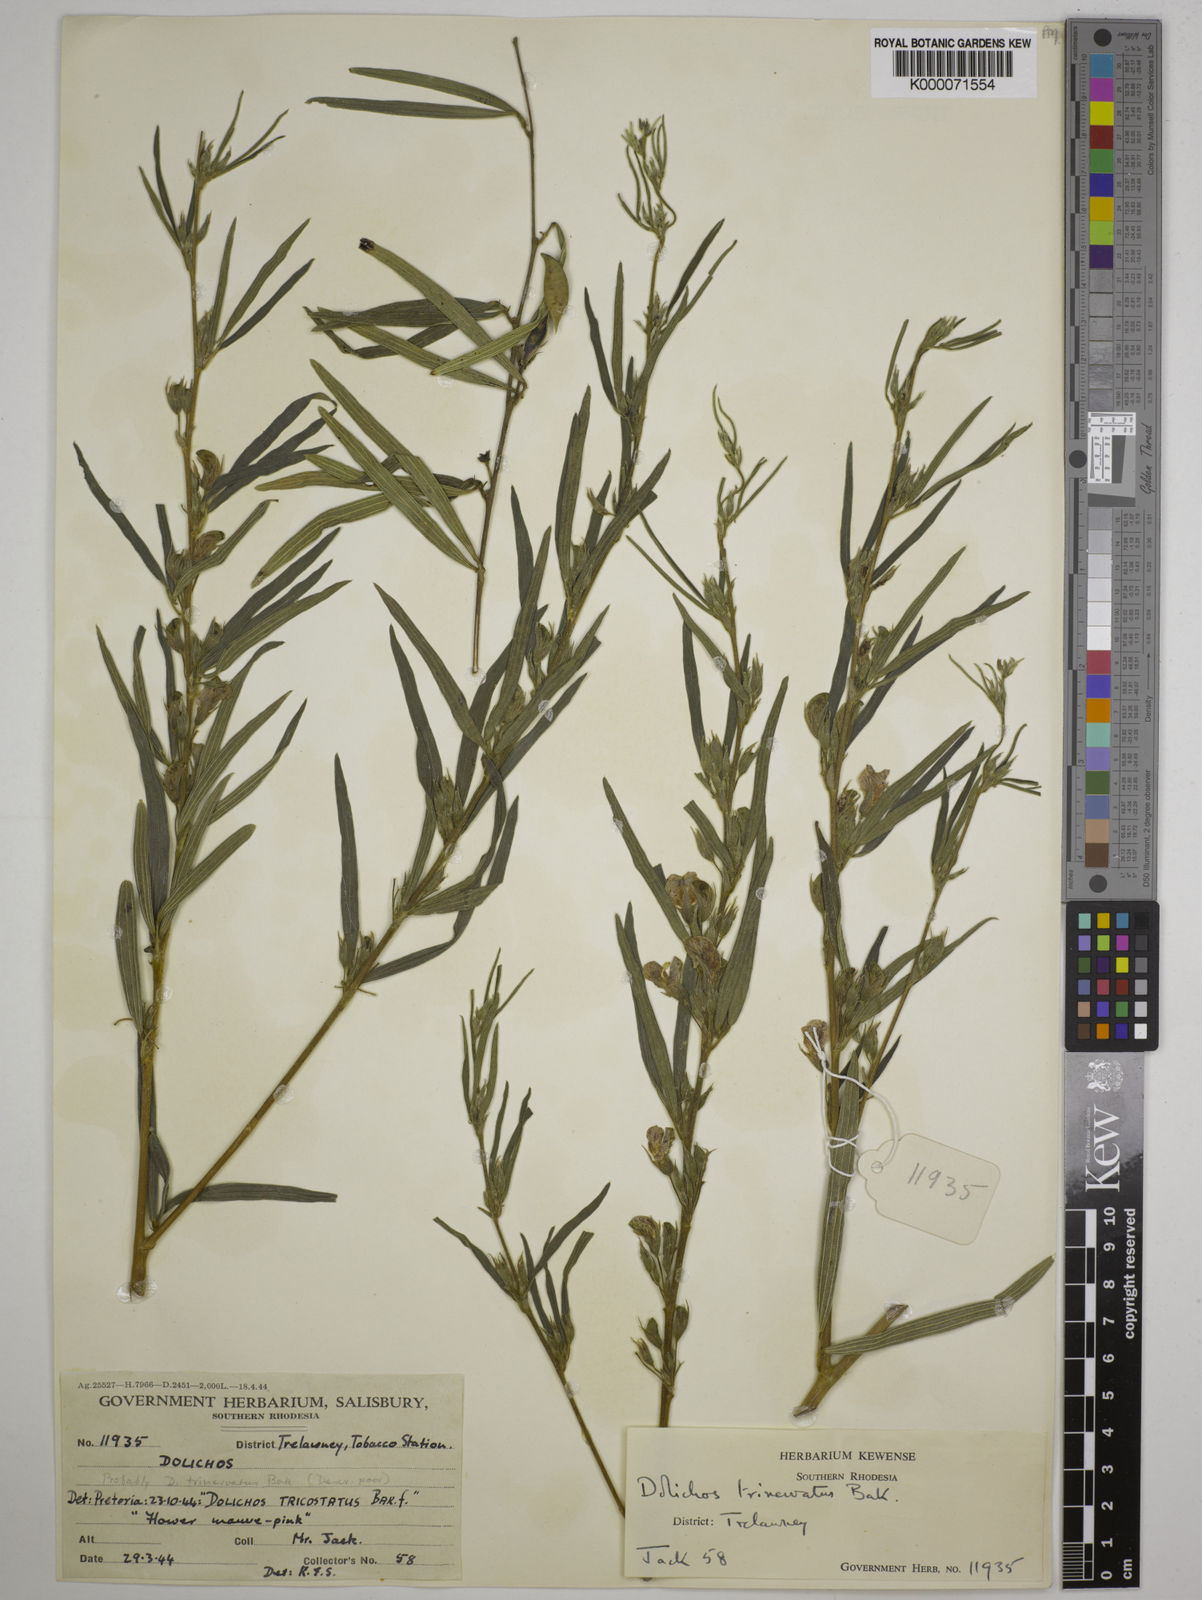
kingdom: Plantae
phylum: Tracheophyta
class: Magnoliopsida
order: Fabales
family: Fabaceae
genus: Dolichos
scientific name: Dolichos trinervatus
